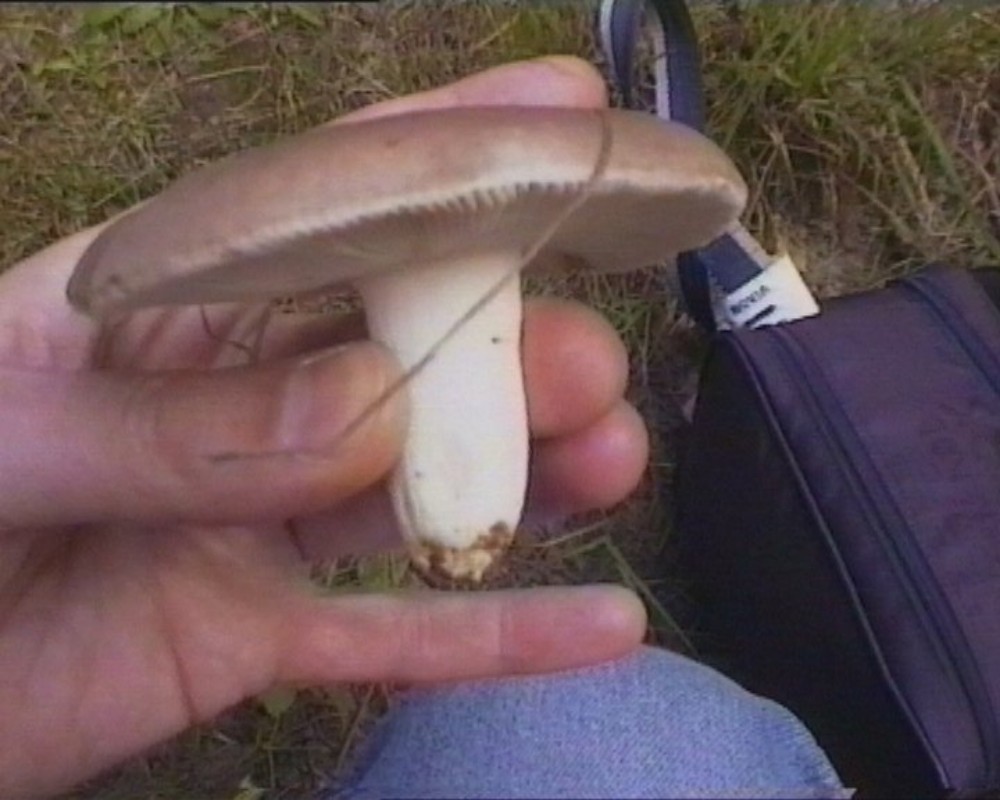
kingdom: Fungi
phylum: Basidiomycota
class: Agaricomycetes
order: Russulales
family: Russulaceae
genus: Russula
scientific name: Russula vesca
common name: spiselig skørhat
